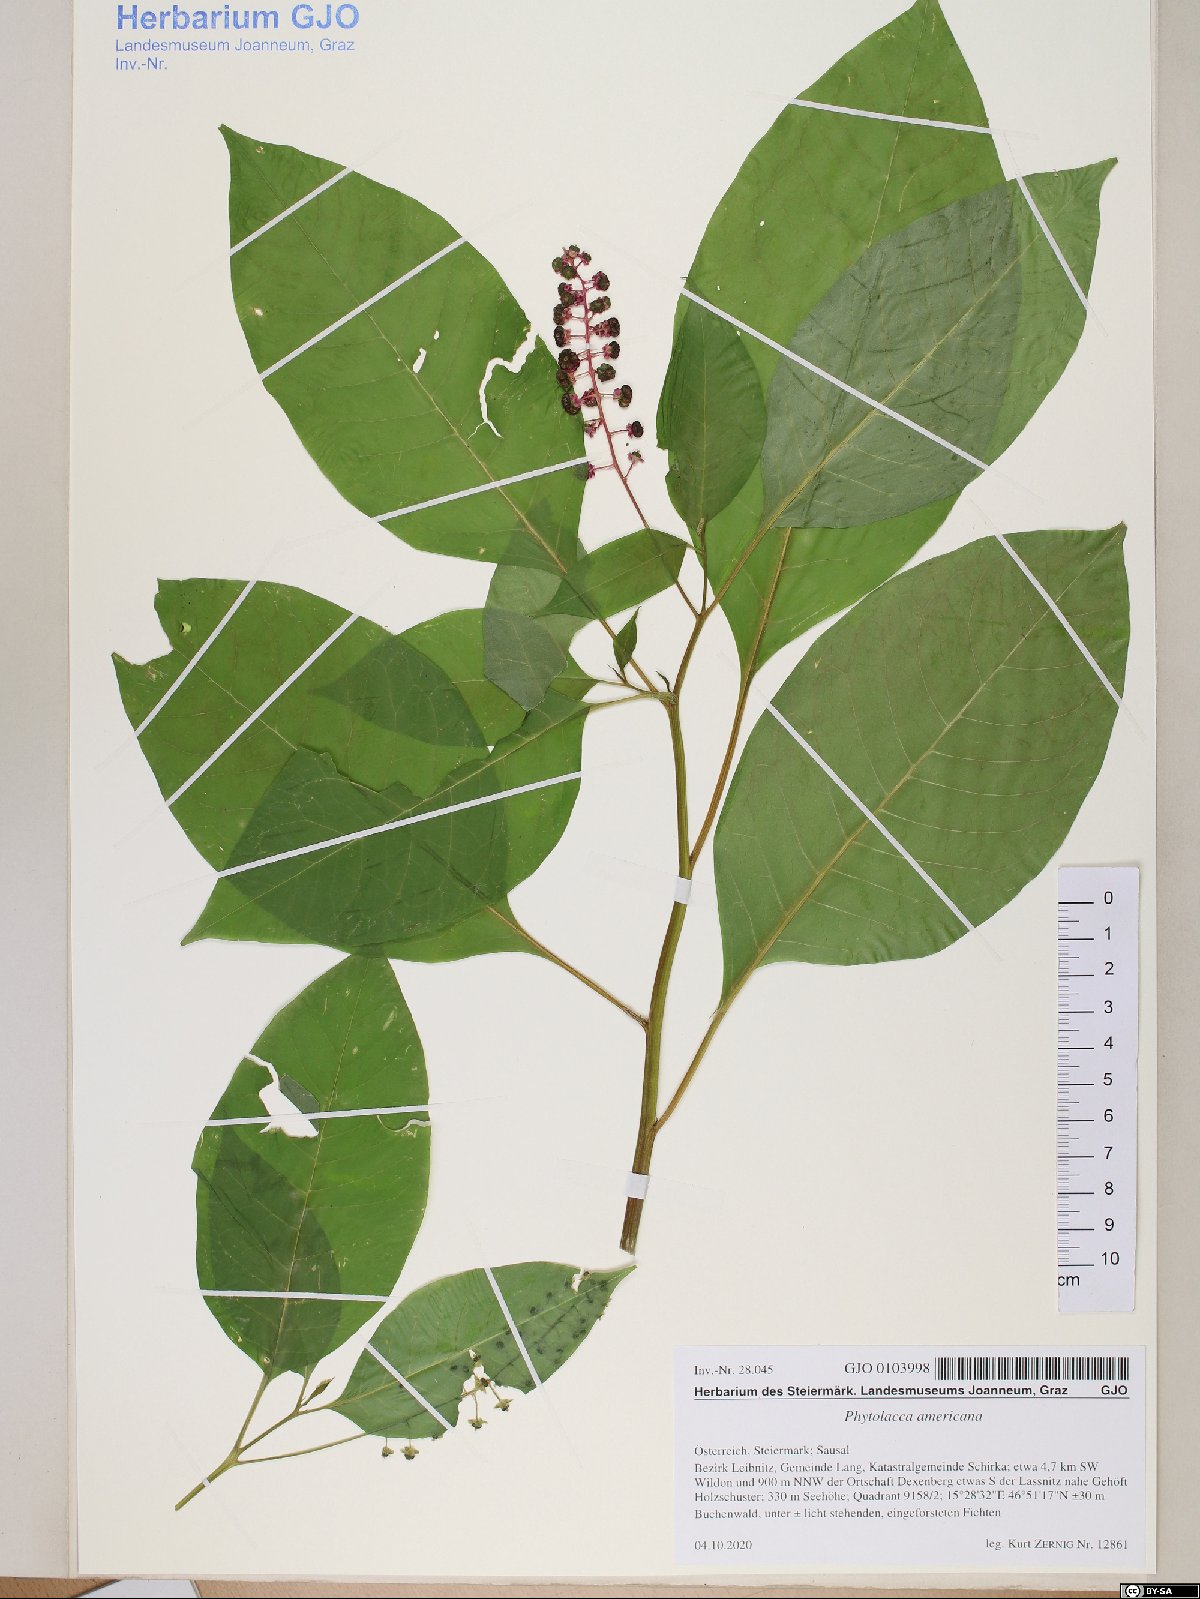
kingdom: Plantae
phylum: Tracheophyta
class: Magnoliopsida
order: Caryophyllales
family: Phytolaccaceae
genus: Phytolacca
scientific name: Phytolacca americana
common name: American pokeweed
